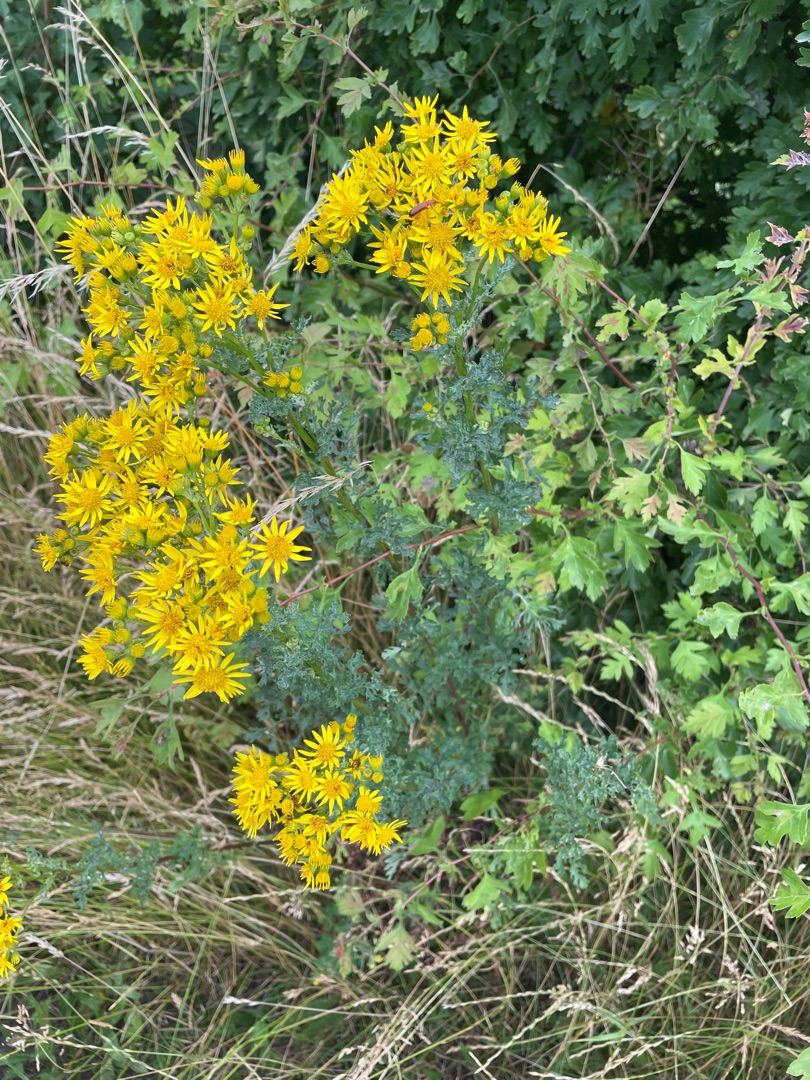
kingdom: Plantae
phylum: Tracheophyta
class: Magnoliopsida
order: Asterales
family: Asteraceae
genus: Jacobaea
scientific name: Jacobaea vulgaris
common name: Eng-brandbæger
